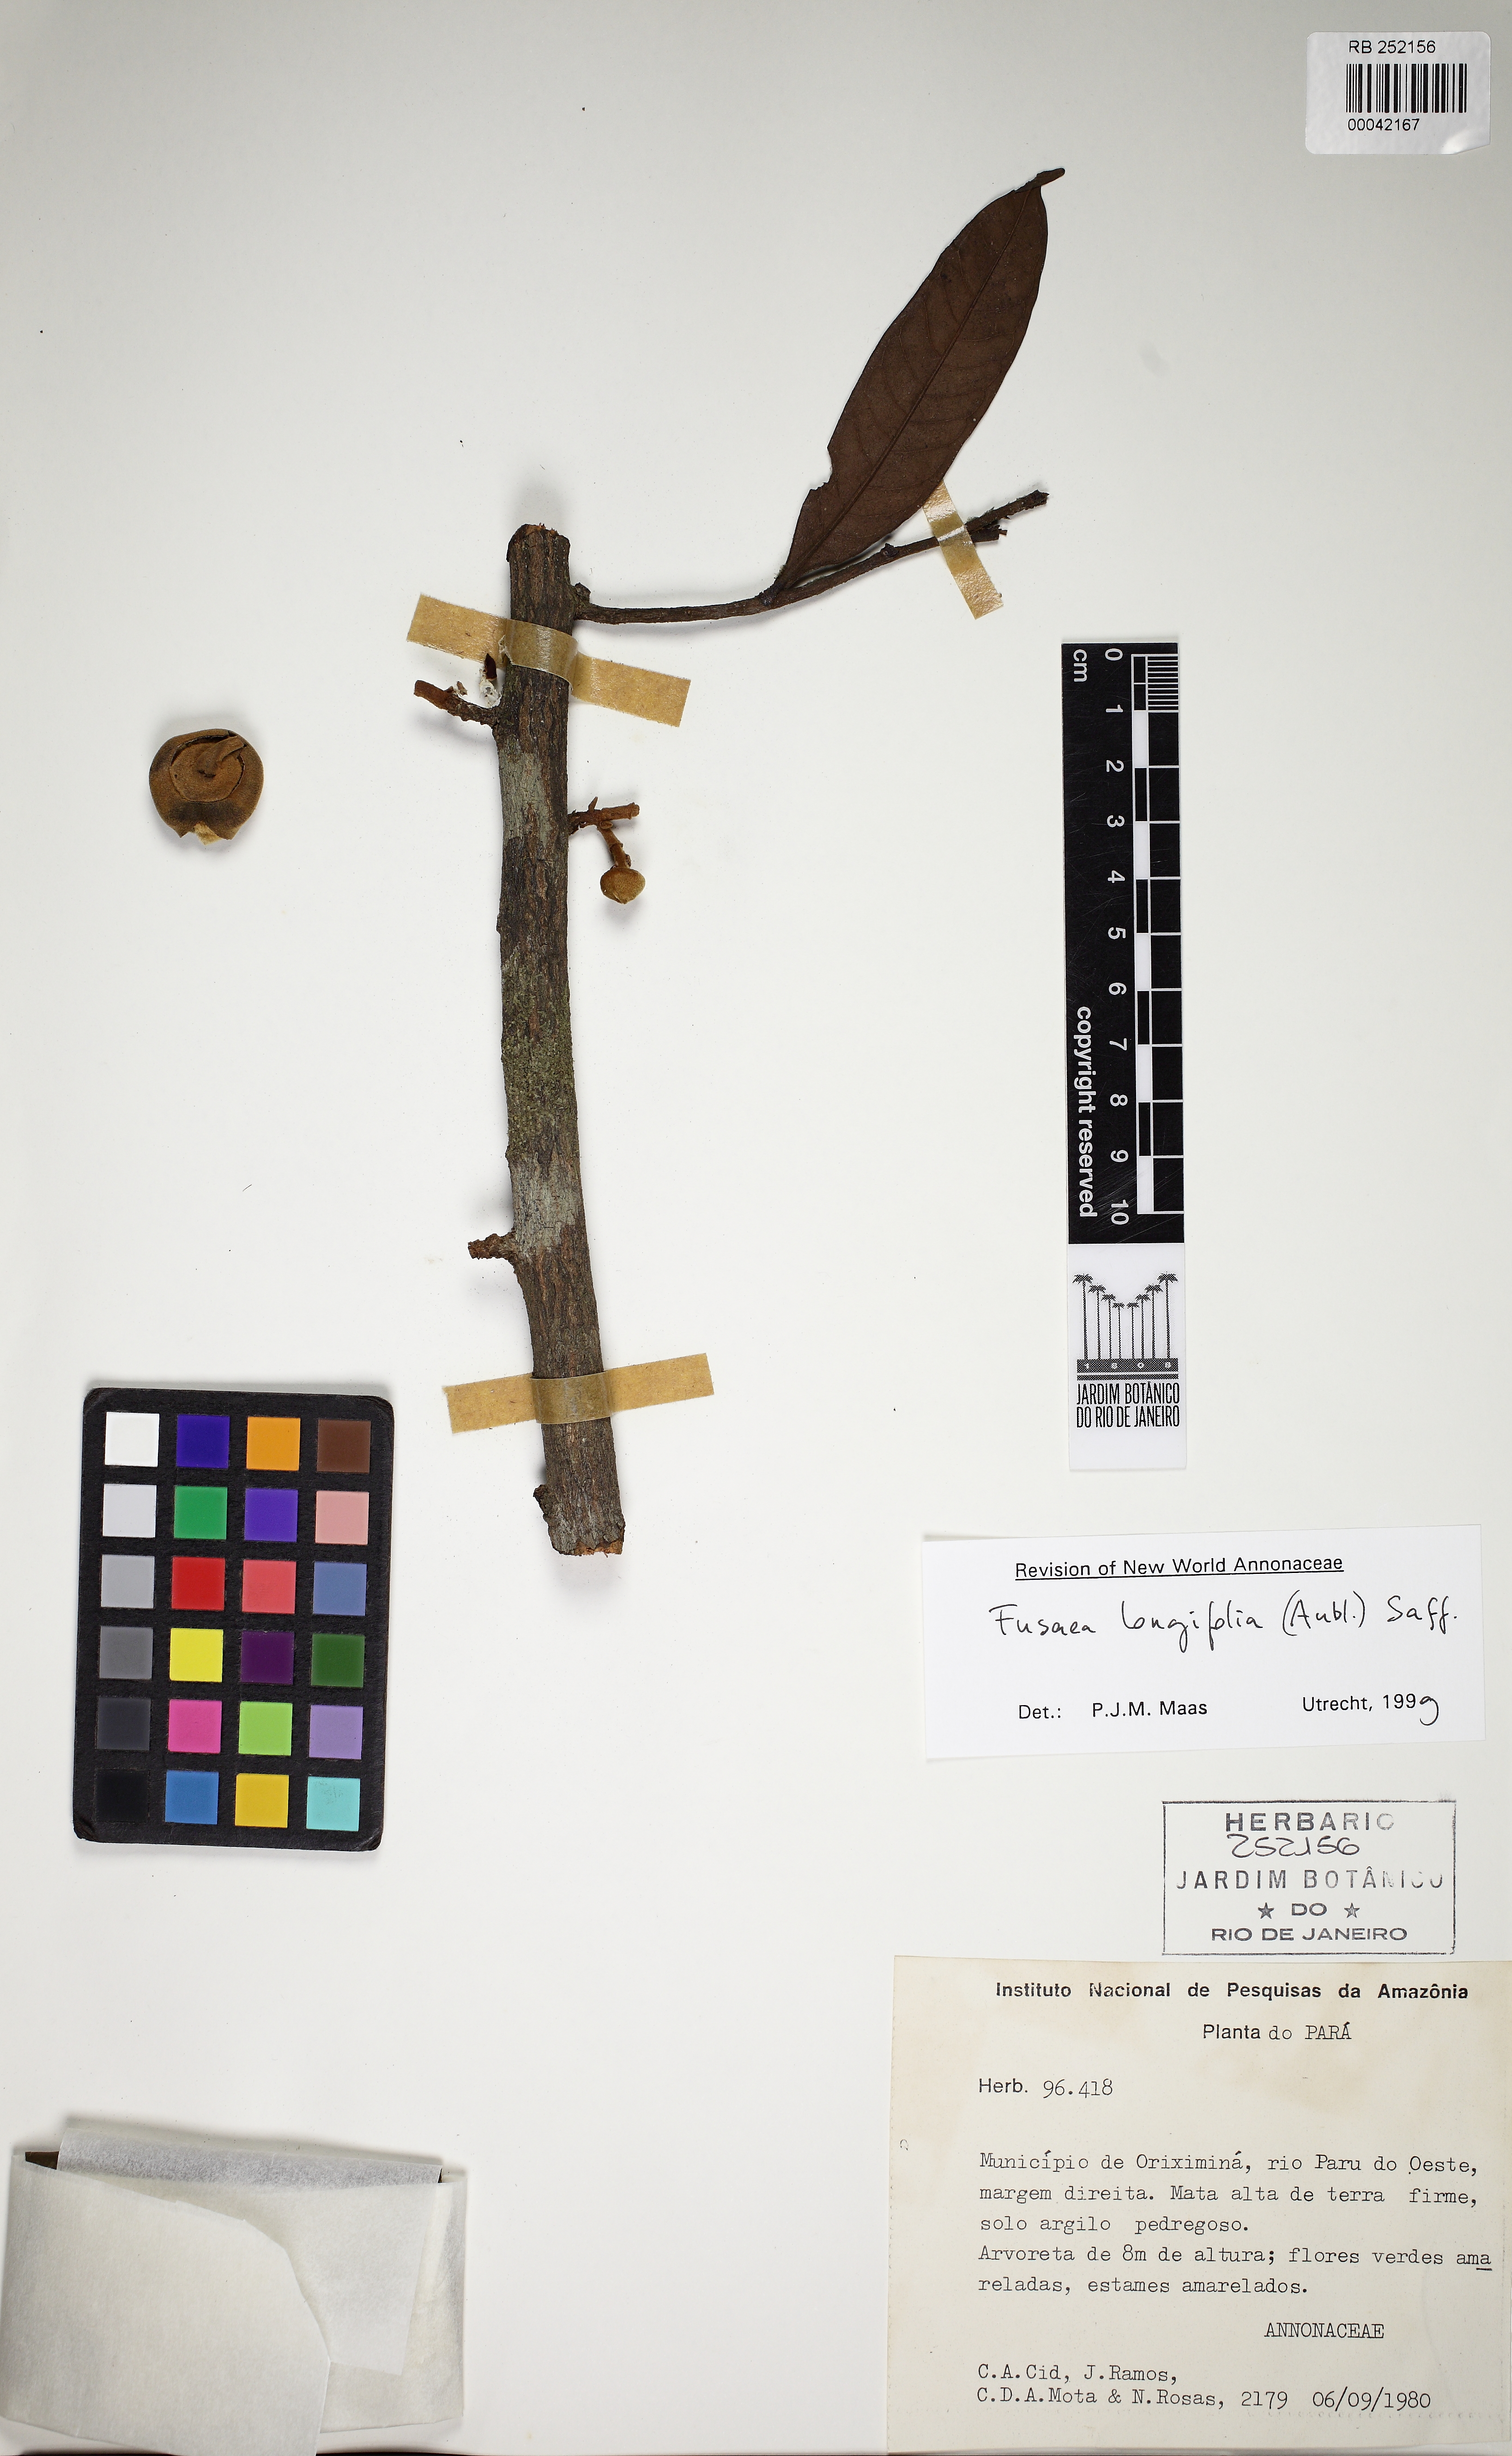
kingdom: Plantae
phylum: Tracheophyta
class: Magnoliopsida
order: Magnoliales
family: Annonaceae
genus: Fusaea
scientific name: Fusaea longifolia
